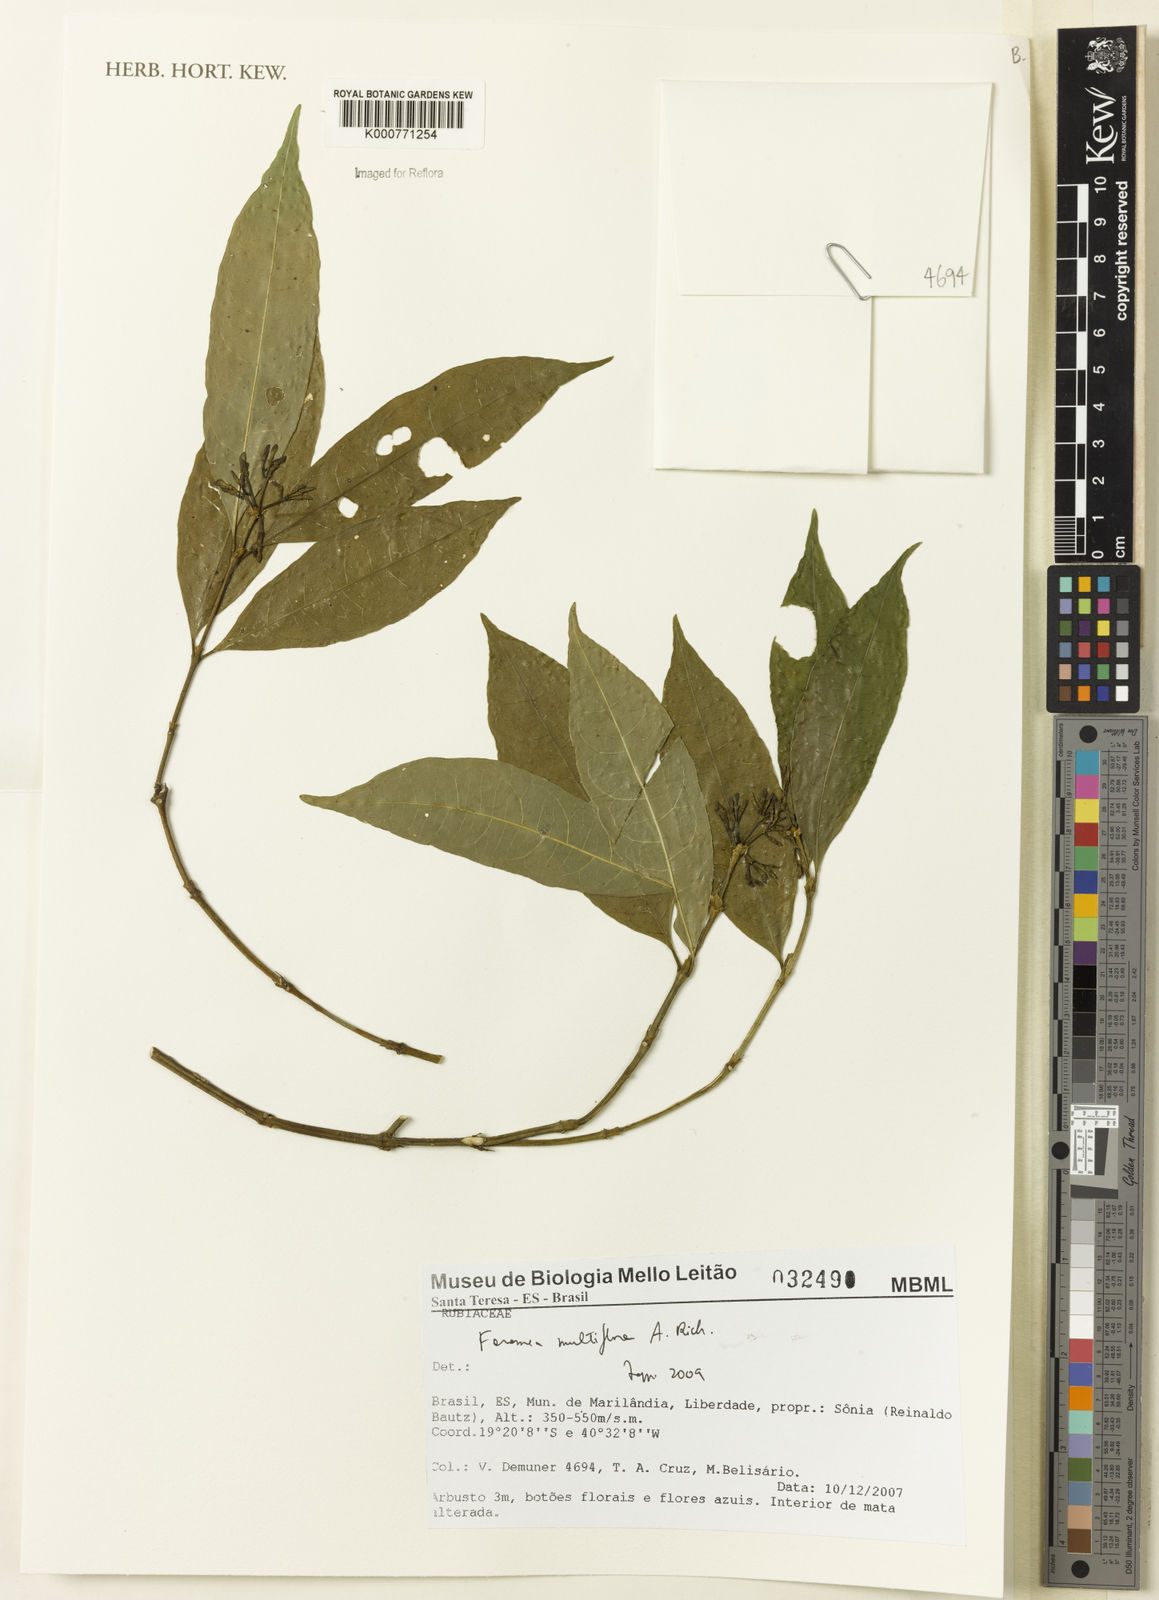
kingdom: Plantae
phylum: Tracheophyta
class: Magnoliopsida
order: Gentianales
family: Rubiaceae
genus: Faramea
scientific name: Faramea multiflora
